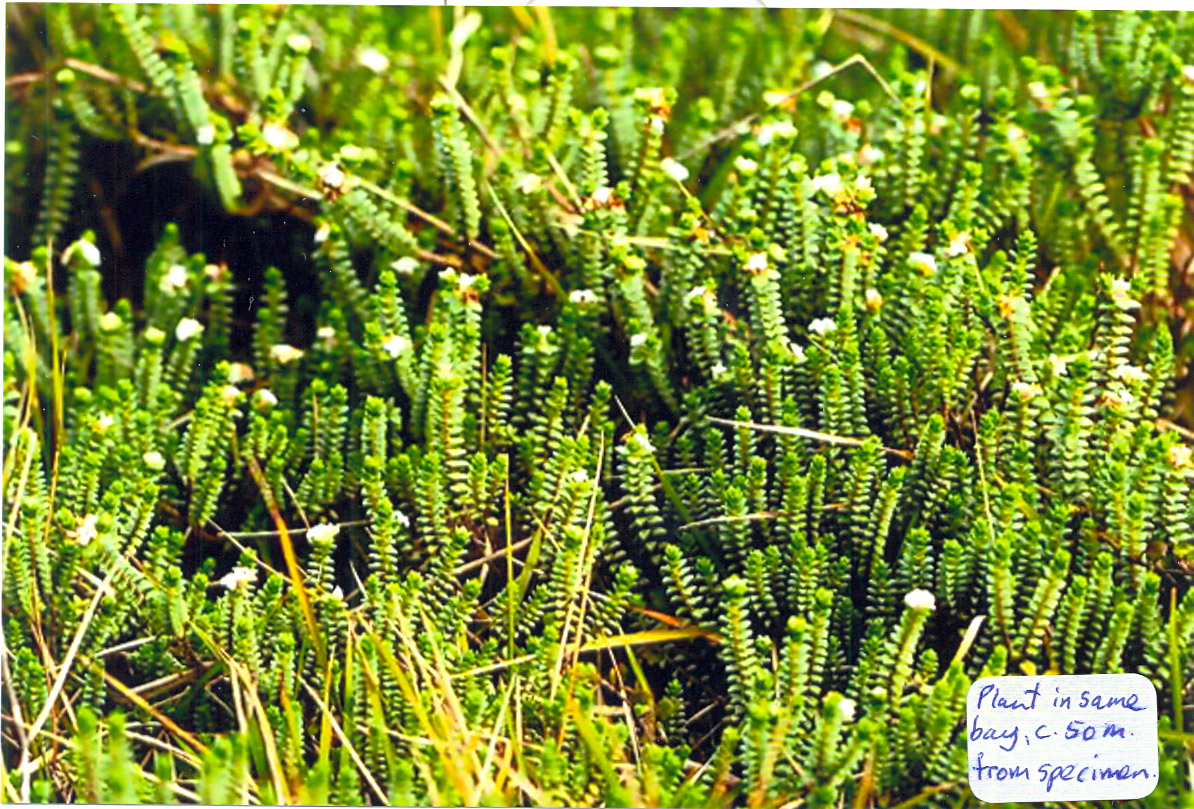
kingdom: Plantae
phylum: Tracheophyta
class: Magnoliopsida
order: Malvales
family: Thymelaeaceae
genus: Pimelea
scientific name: Pimelea urvilleana
